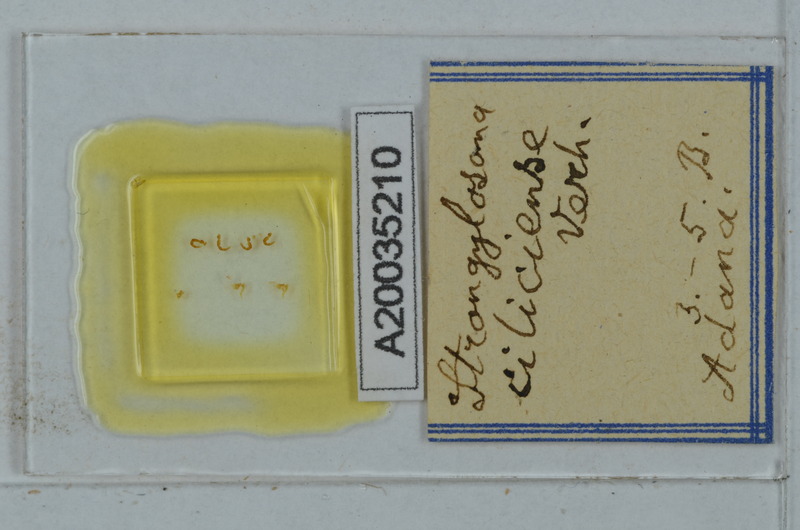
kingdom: Animalia
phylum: Arthropoda
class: Diplopoda
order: Polydesmida
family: Paradoxosomatidae
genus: Strongylosoma
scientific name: Strongylosoma cilliciense
